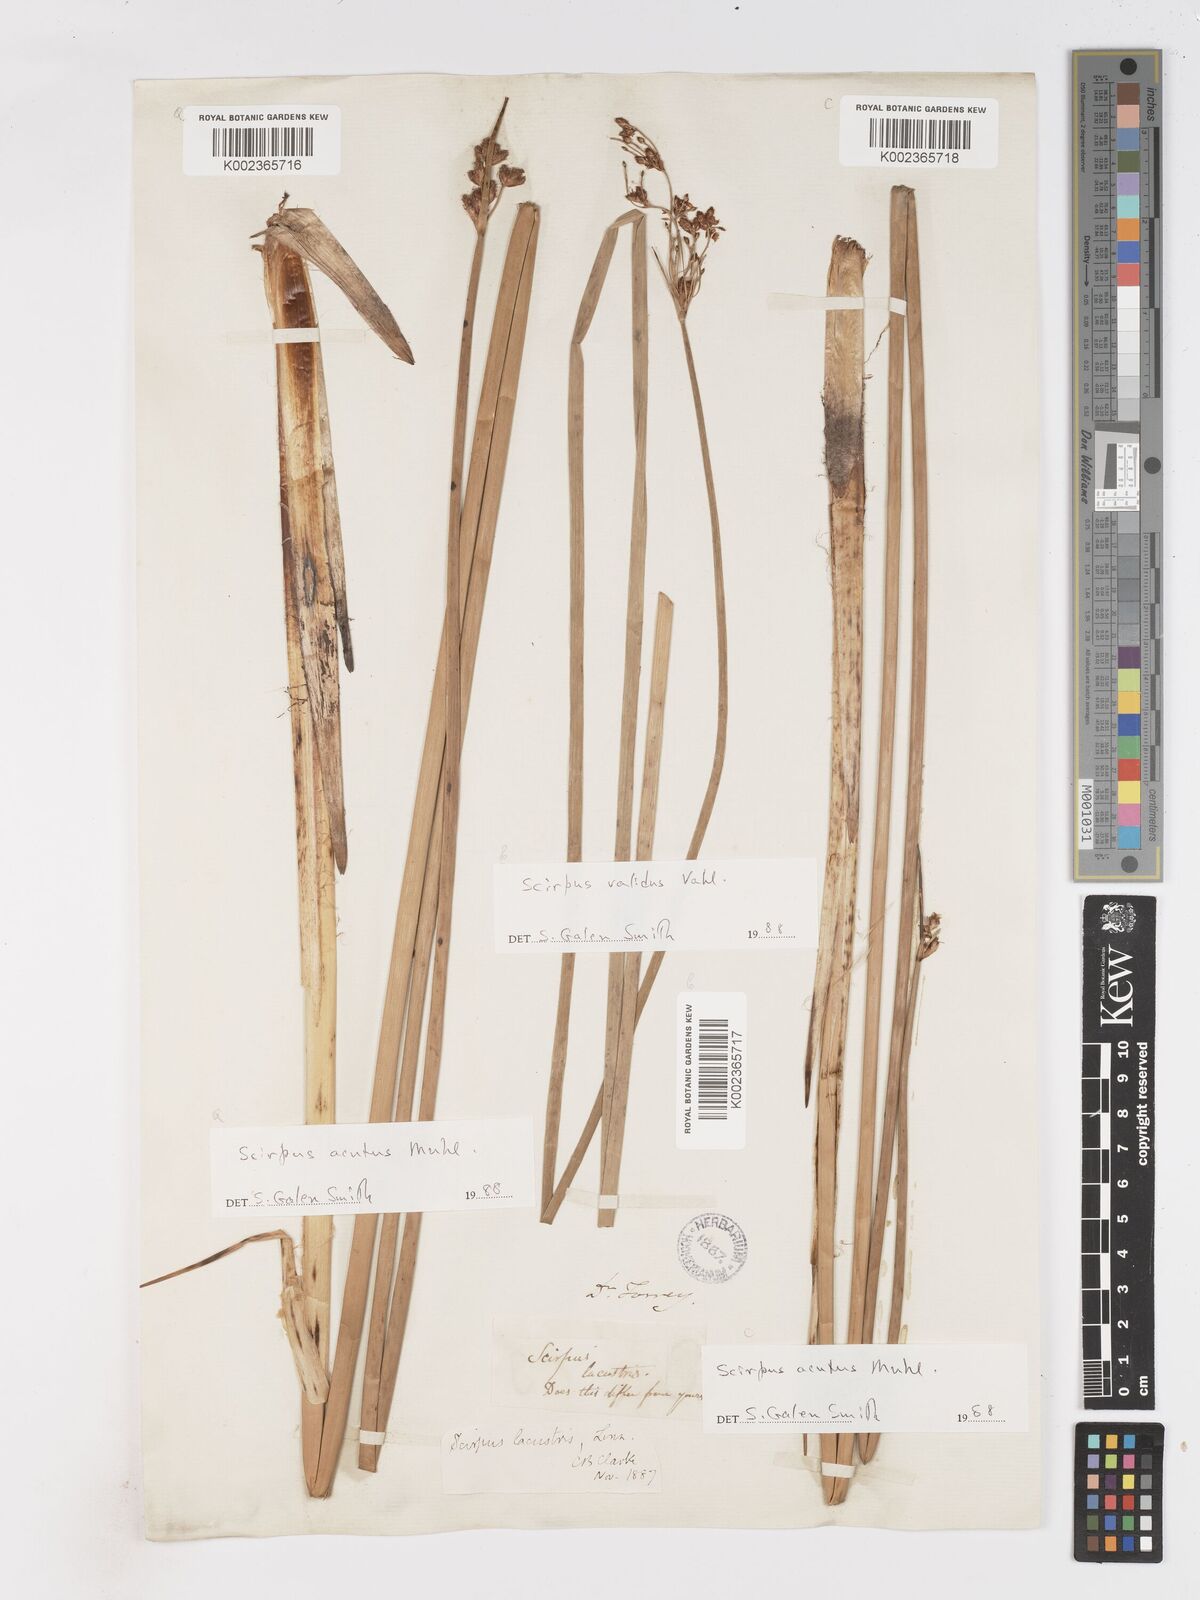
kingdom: Plantae
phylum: Tracheophyta
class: Liliopsida
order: Poales
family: Cyperaceae
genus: Schoenoplectus
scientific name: Schoenoplectus acutus
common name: Hardstem bulrush
